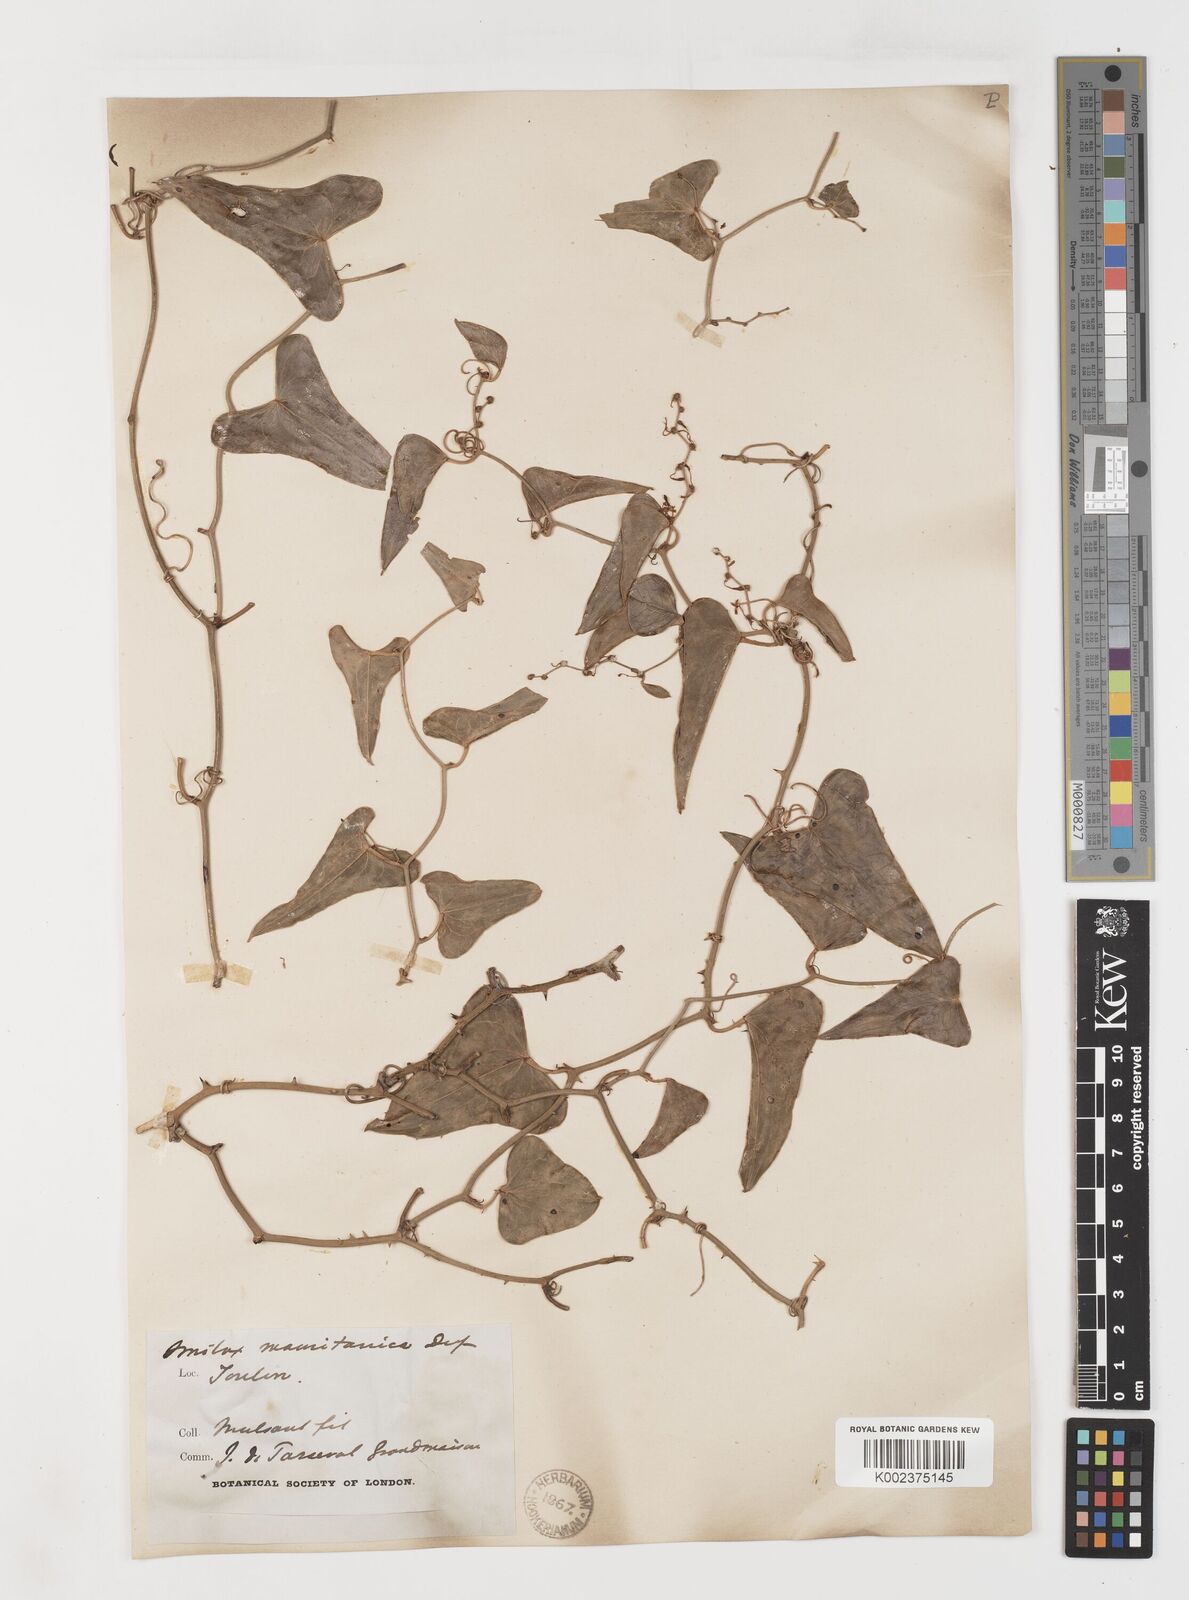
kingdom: Plantae
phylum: Tracheophyta
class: Liliopsida
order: Liliales
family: Smilacaceae
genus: Smilax
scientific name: Smilax aspera
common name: Common smilax
